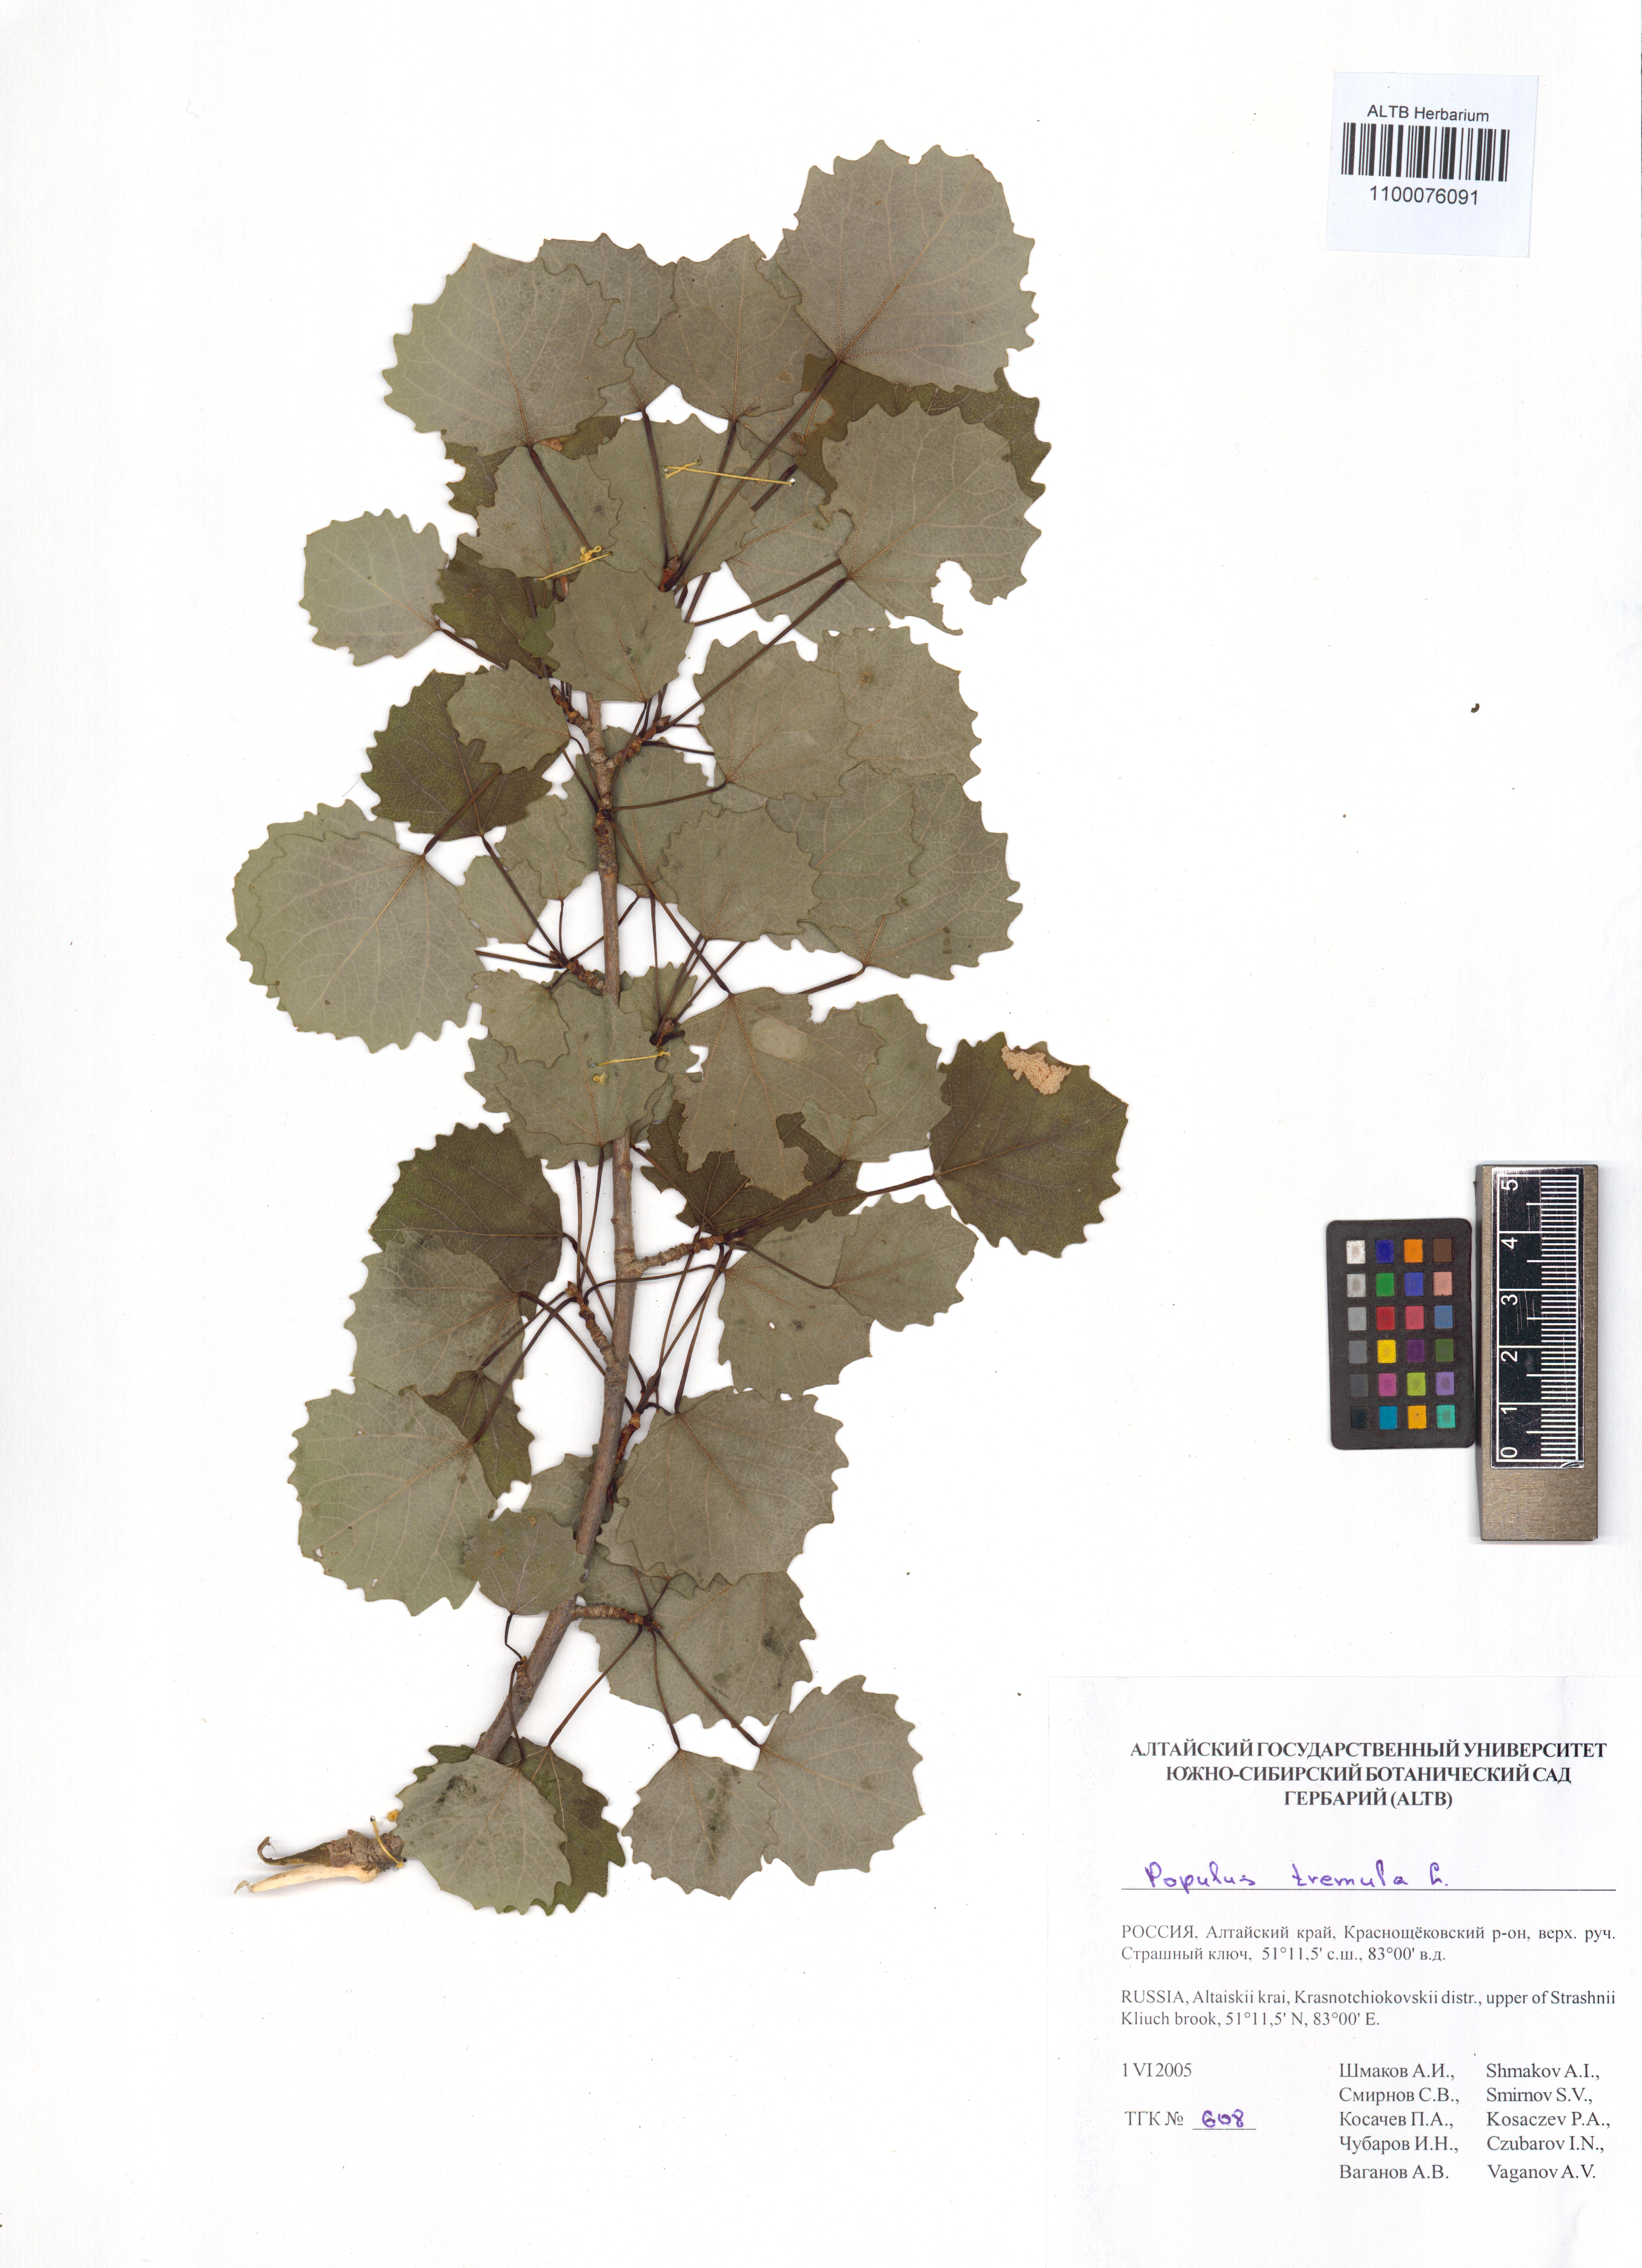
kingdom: Plantae
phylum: Tracheophyta
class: Magnoliopsida
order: Malpighiales
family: Salicaceae
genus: Populus
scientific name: Populus tremula
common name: European aspen
